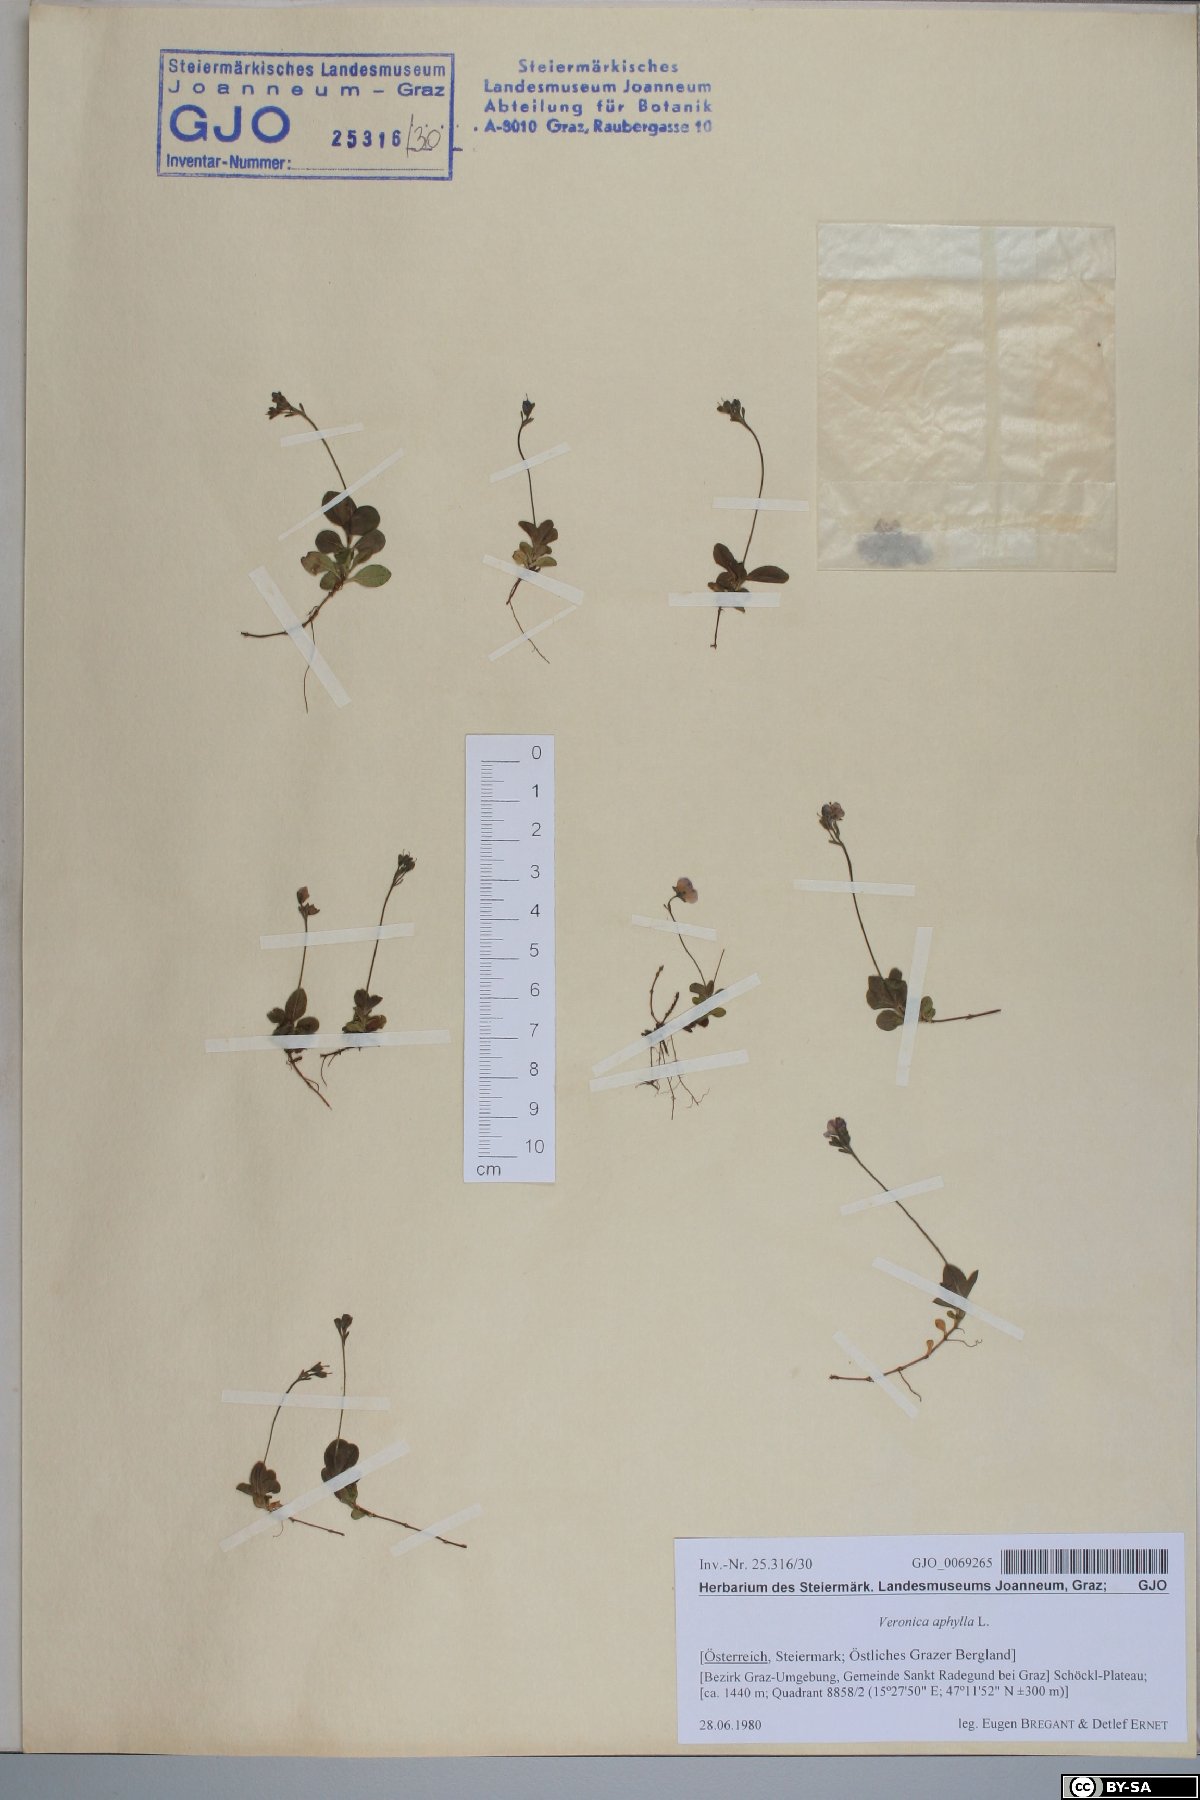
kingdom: Plantae
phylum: Tracheophyta
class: Magnoliopsida
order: Lamiales
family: Plantaginaceae
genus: Veronica
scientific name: Veronica aphylla
